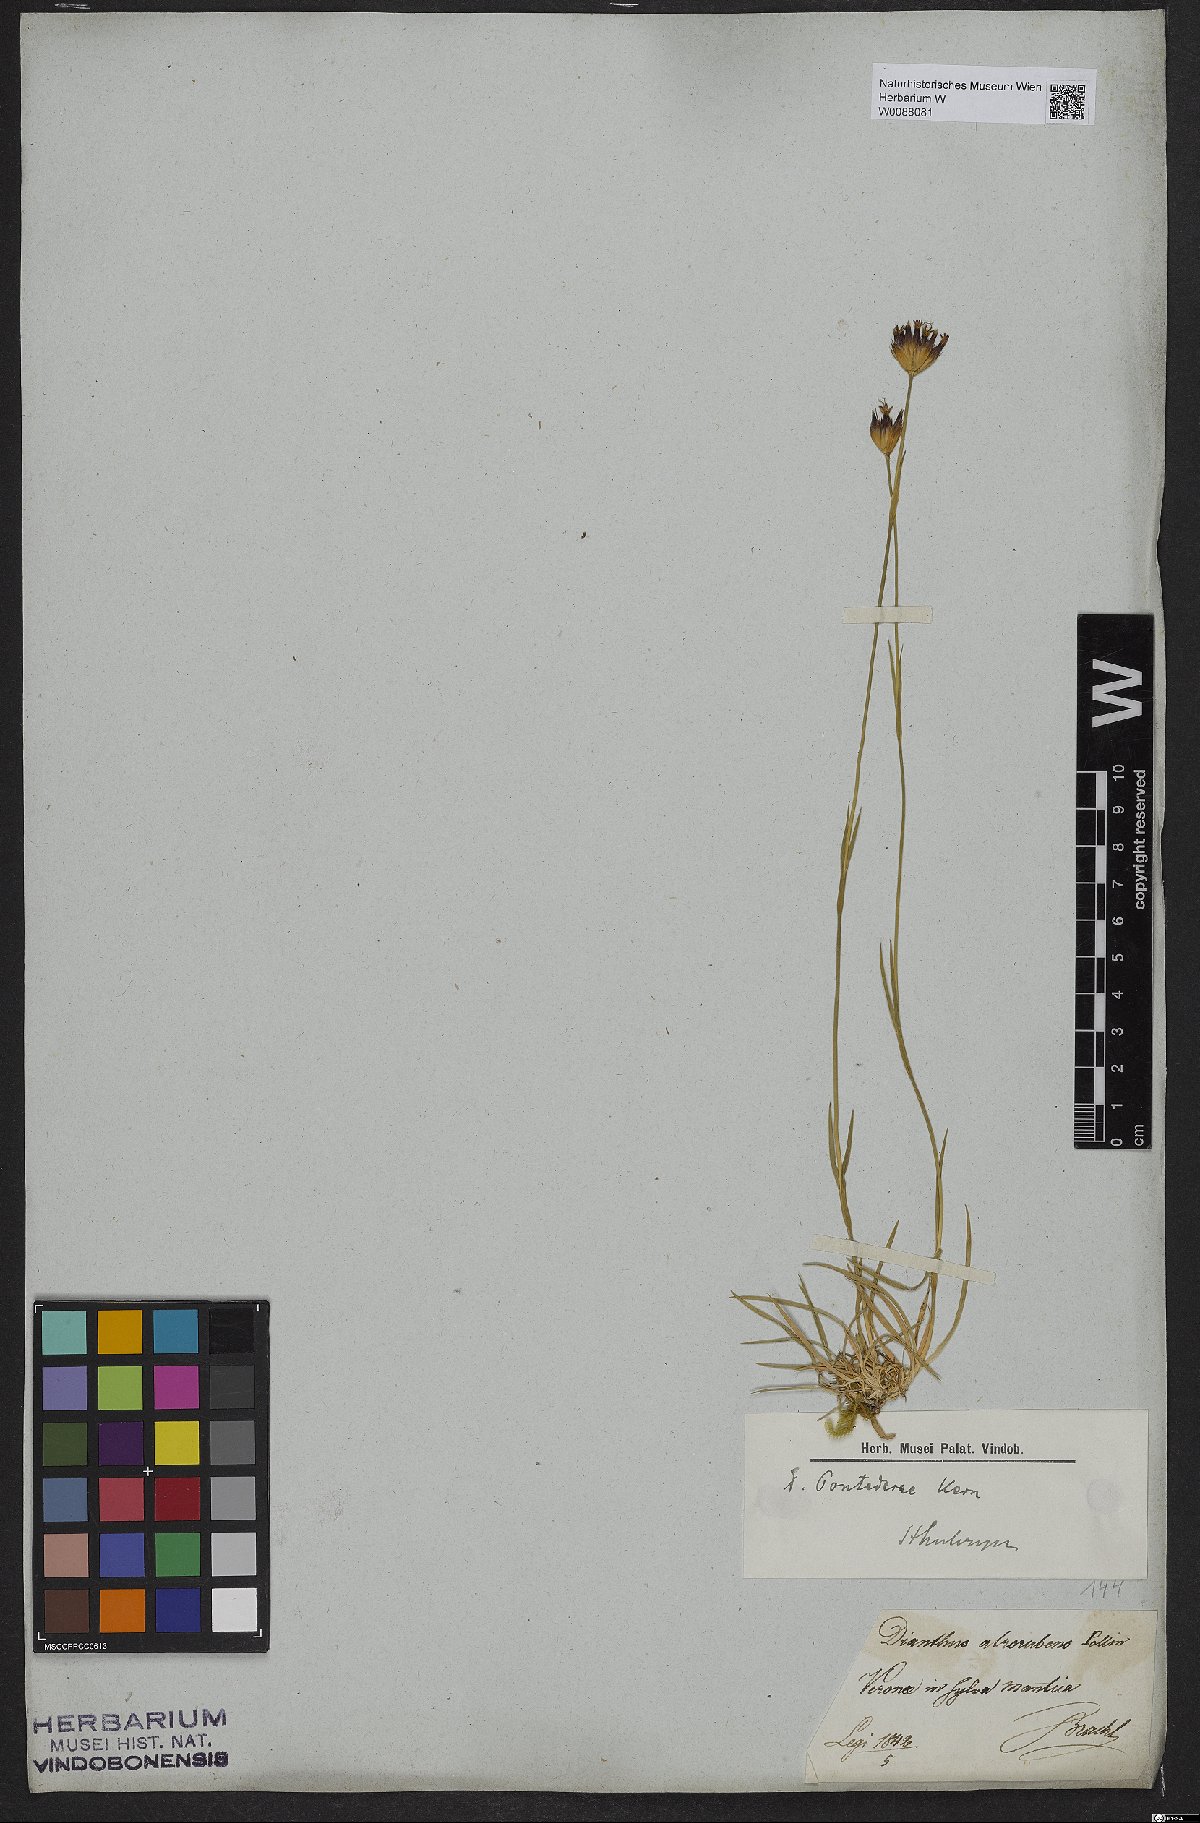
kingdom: Plantae
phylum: Tracheophyta
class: Magnoliopsida
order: Caryophyllales
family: Caryophyllaceae
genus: Dianthus
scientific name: Dianthus pontederae
